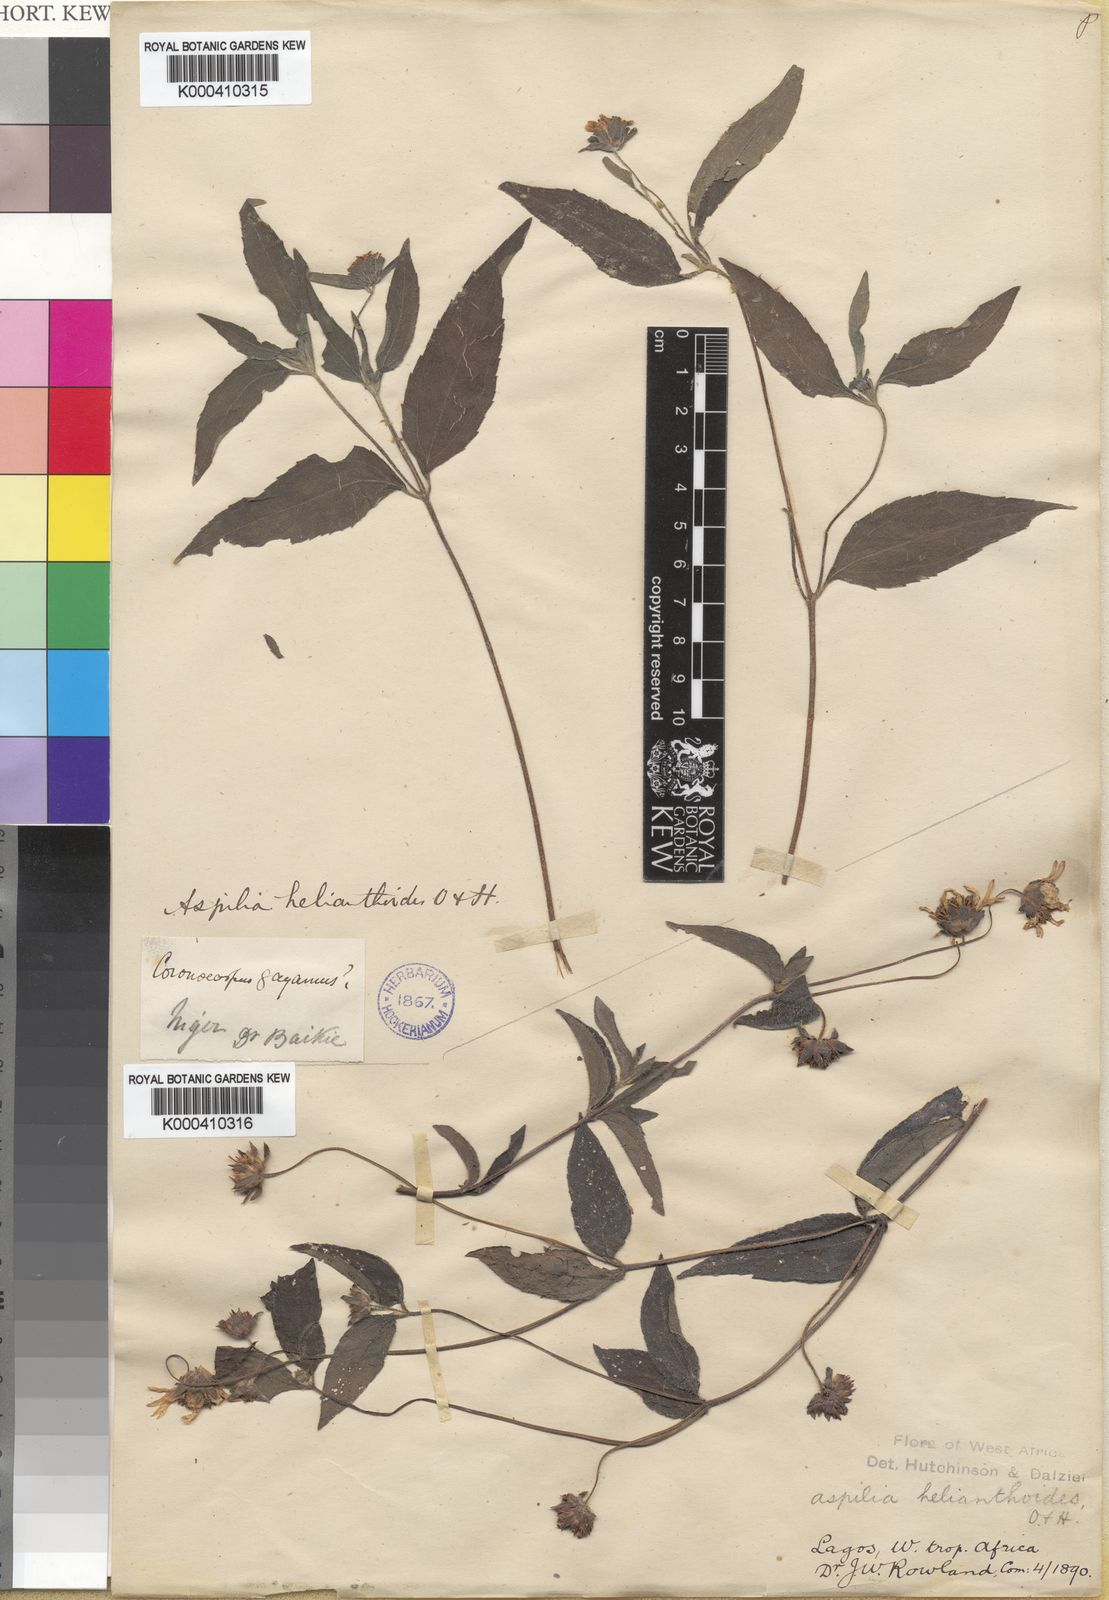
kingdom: Plantae
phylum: Tracheophyta
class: Magnoliopsida
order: Asterales
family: Asteraceae
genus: Aspilia
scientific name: Aspilia africana
